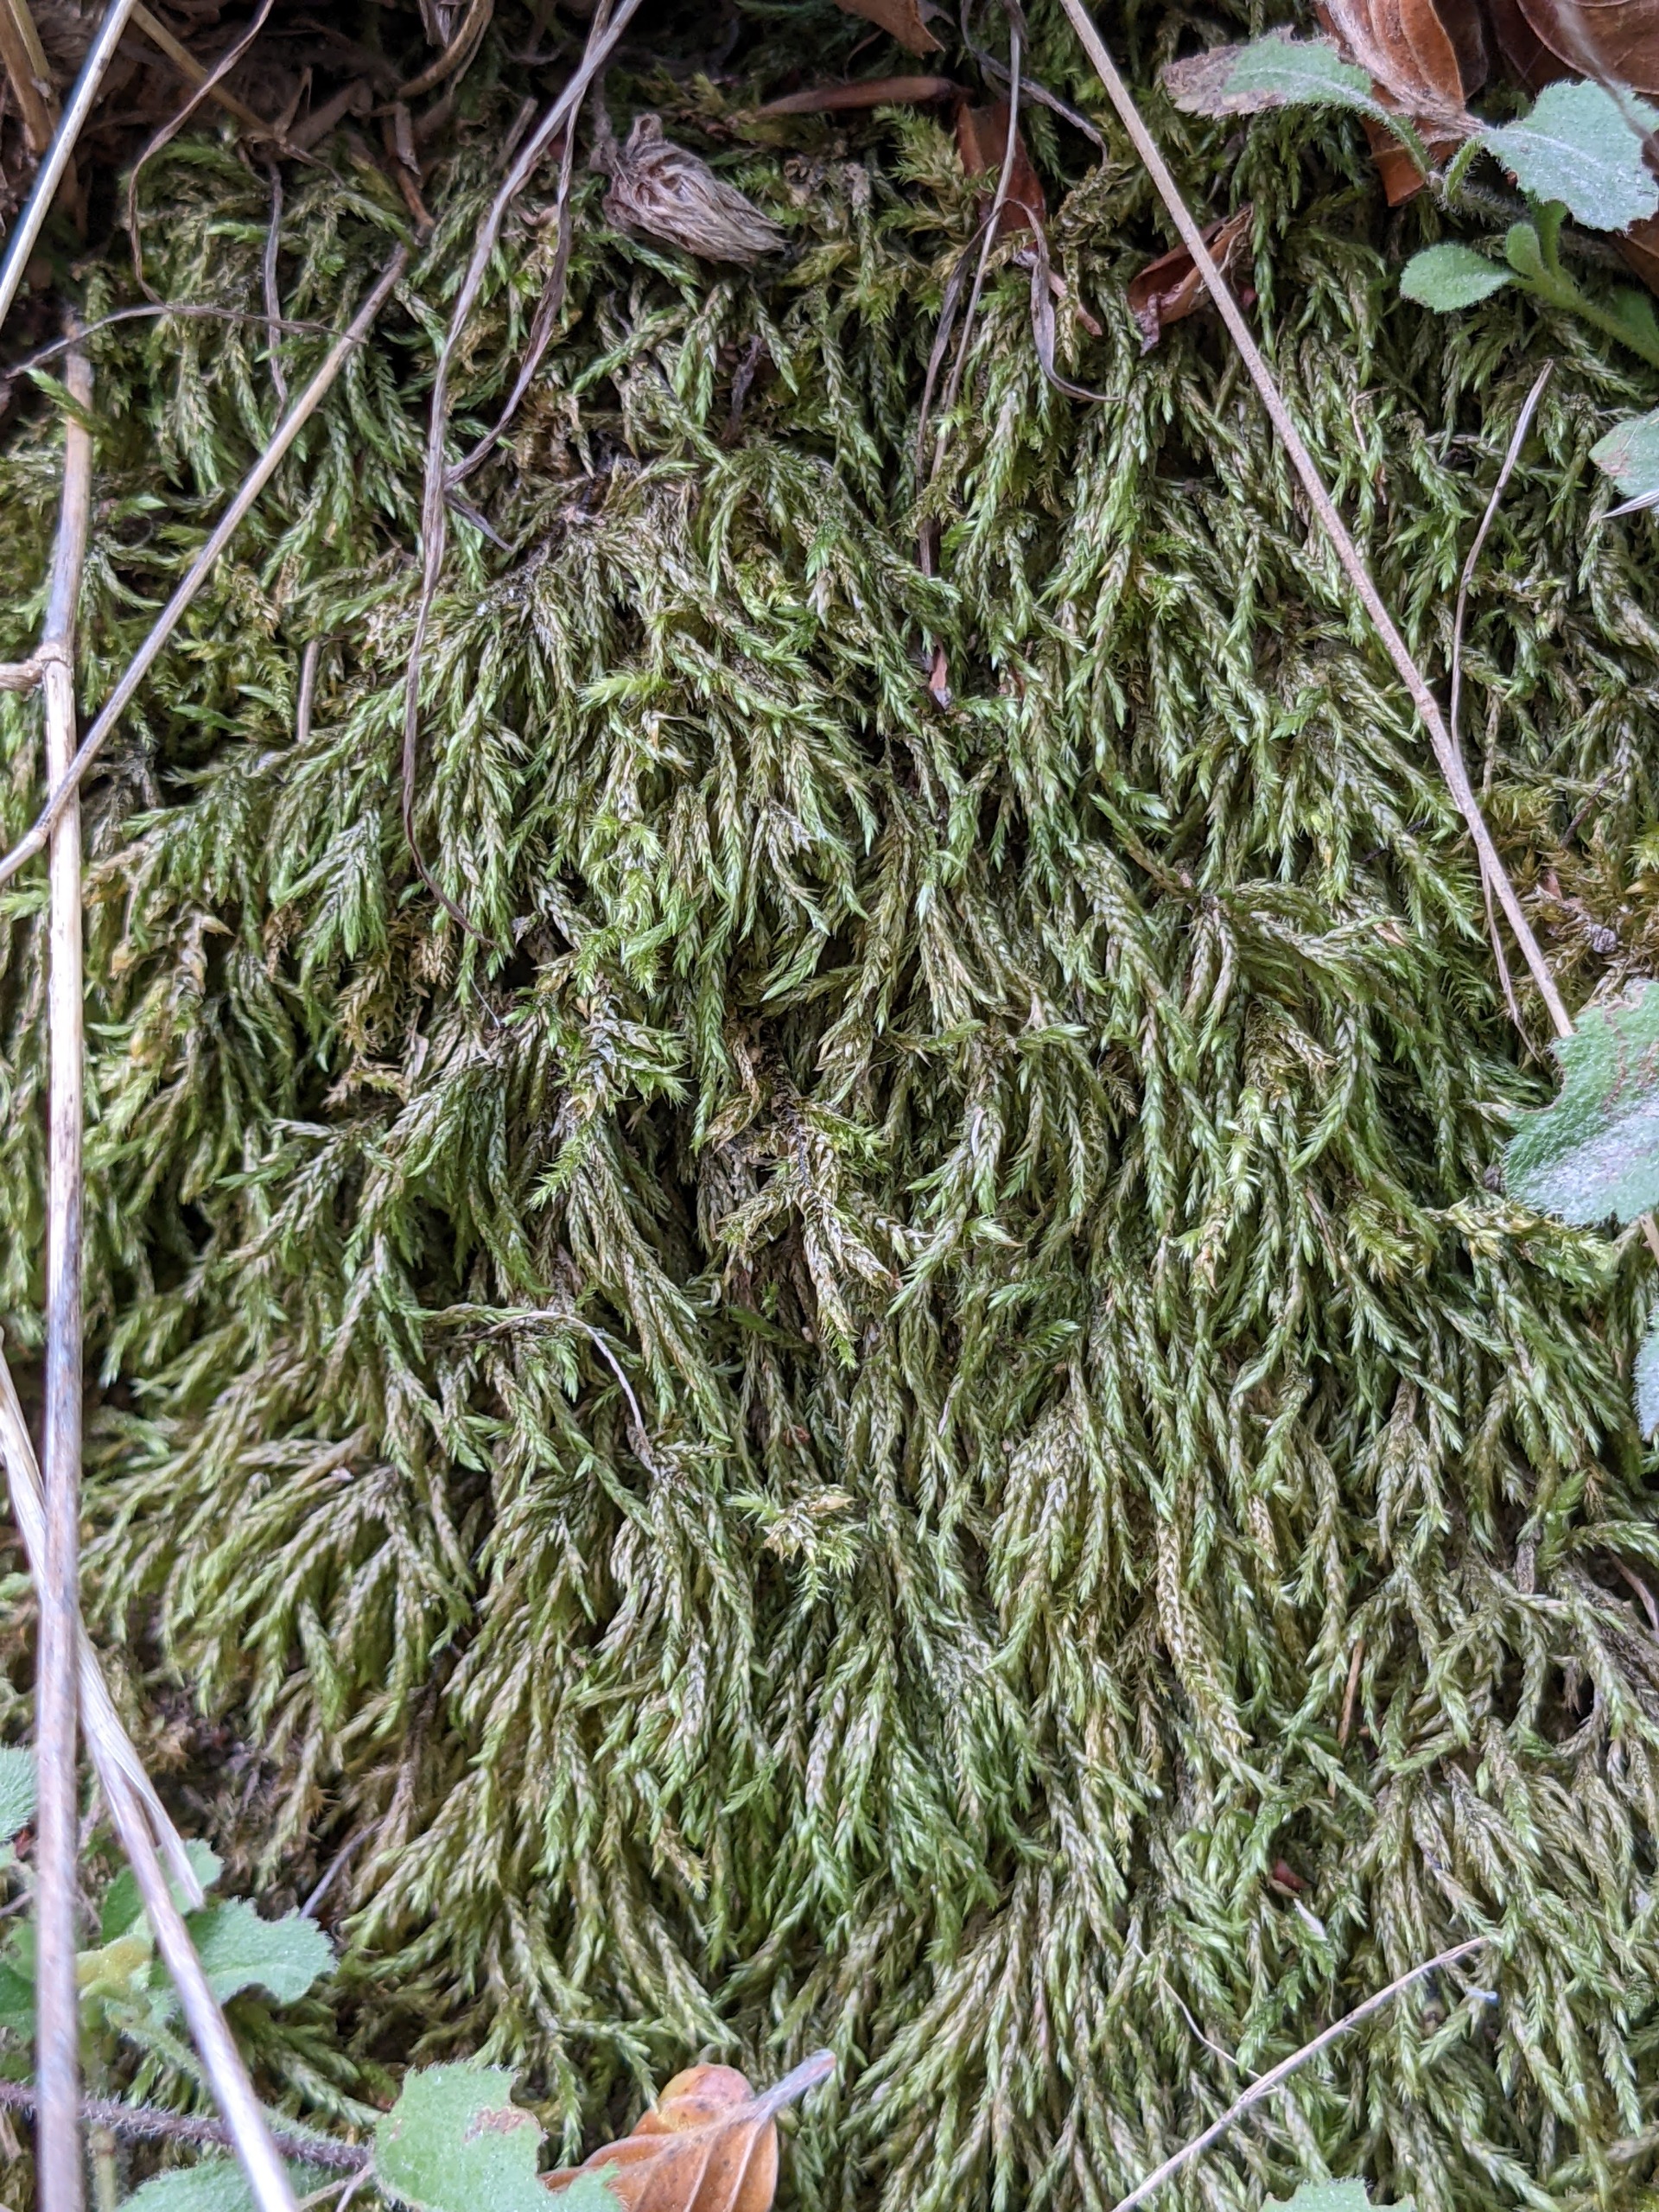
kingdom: Plantae
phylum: Bryophyta
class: Bryopsida
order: Hypnales
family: Lembophyllaceae
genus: Isothecium
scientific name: Isothecium alopecuroides
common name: Stor stammemos
